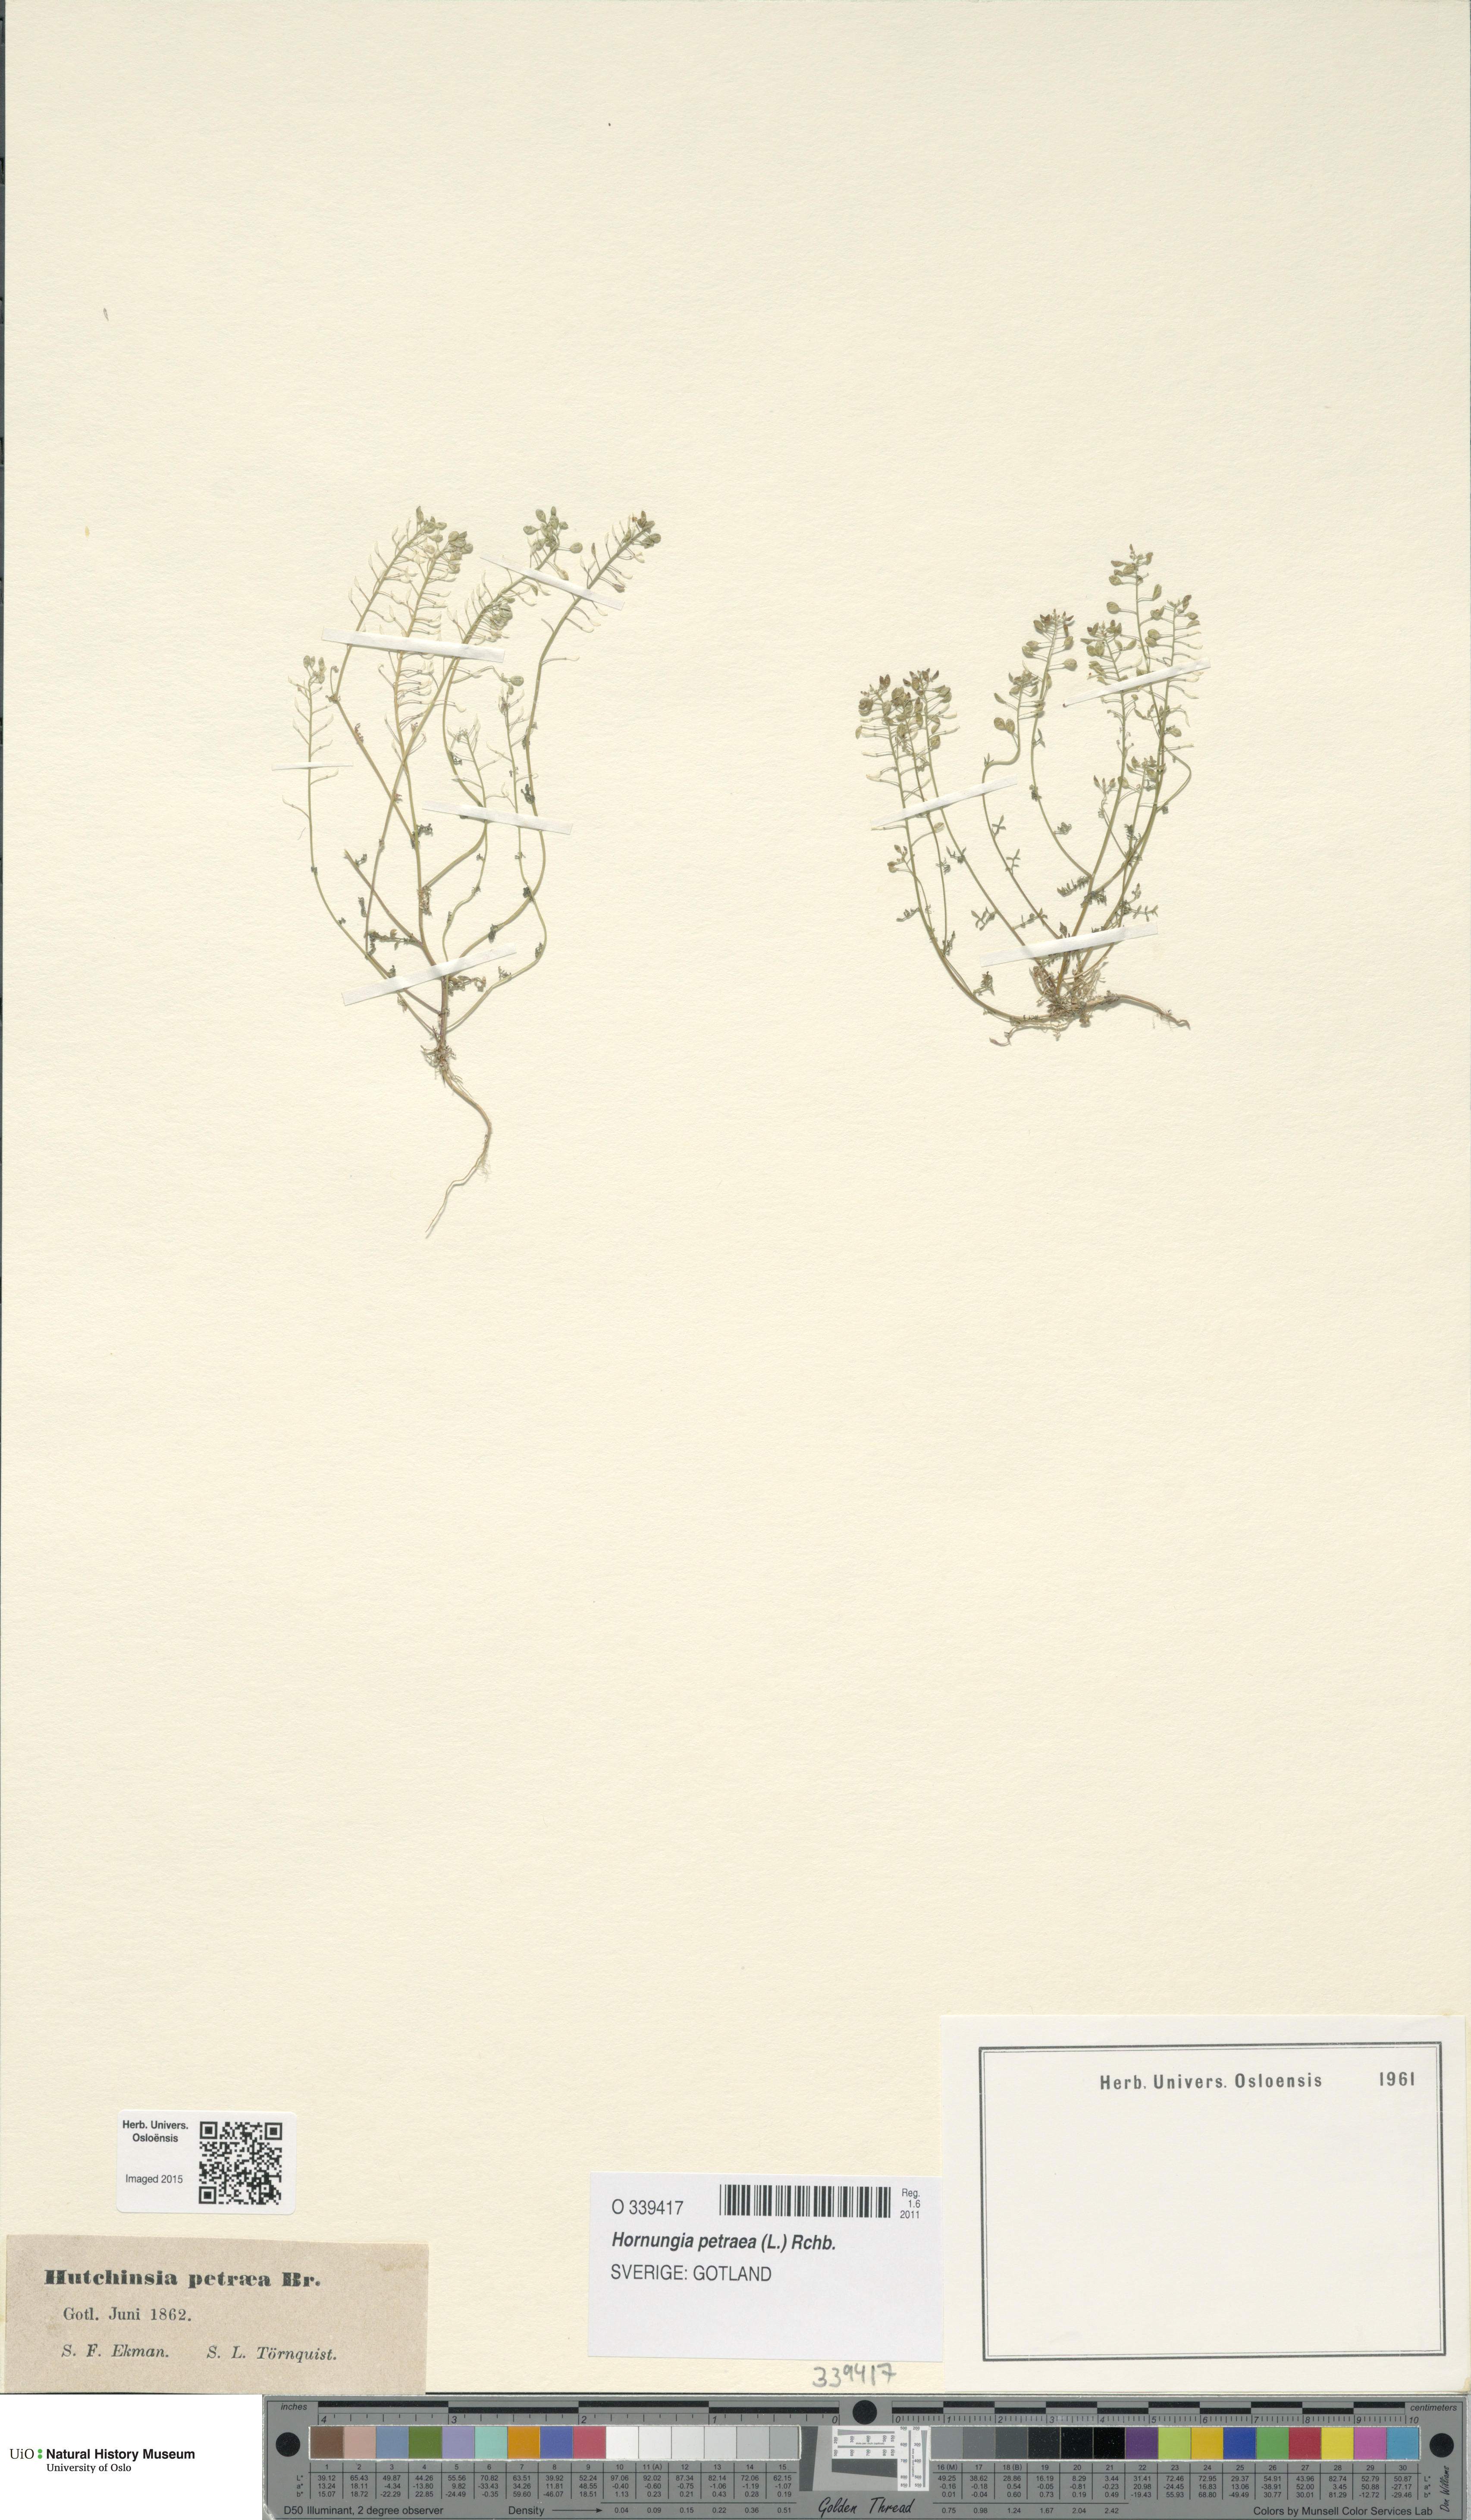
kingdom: Plantae
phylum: Tracheophyta
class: Magnoliopsida
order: Brassicales
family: Brassicaceae
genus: Hornungia
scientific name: Hornungia petraea
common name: Hutchinsia
